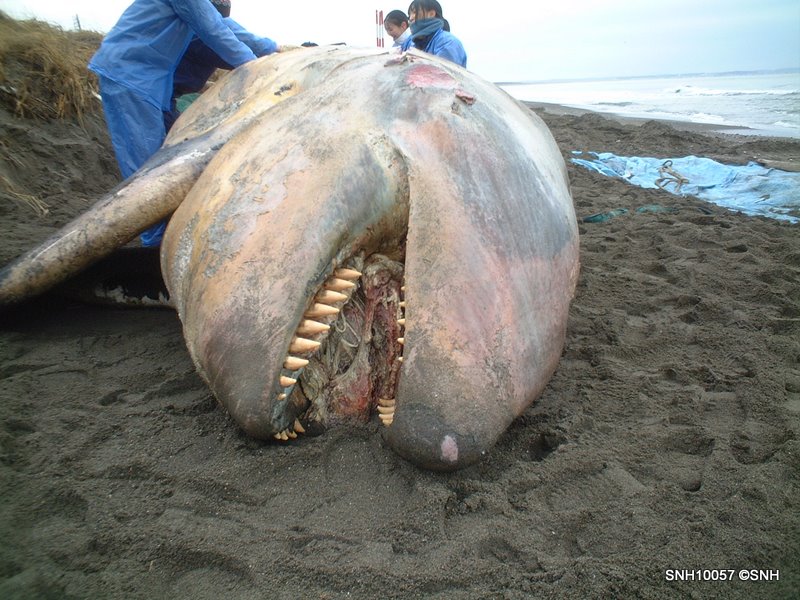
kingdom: Animalia
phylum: Chordata
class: Mammalia
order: Cetacea
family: Delphinidae
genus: Orcinus
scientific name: Orcinus orca
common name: Killer whale
